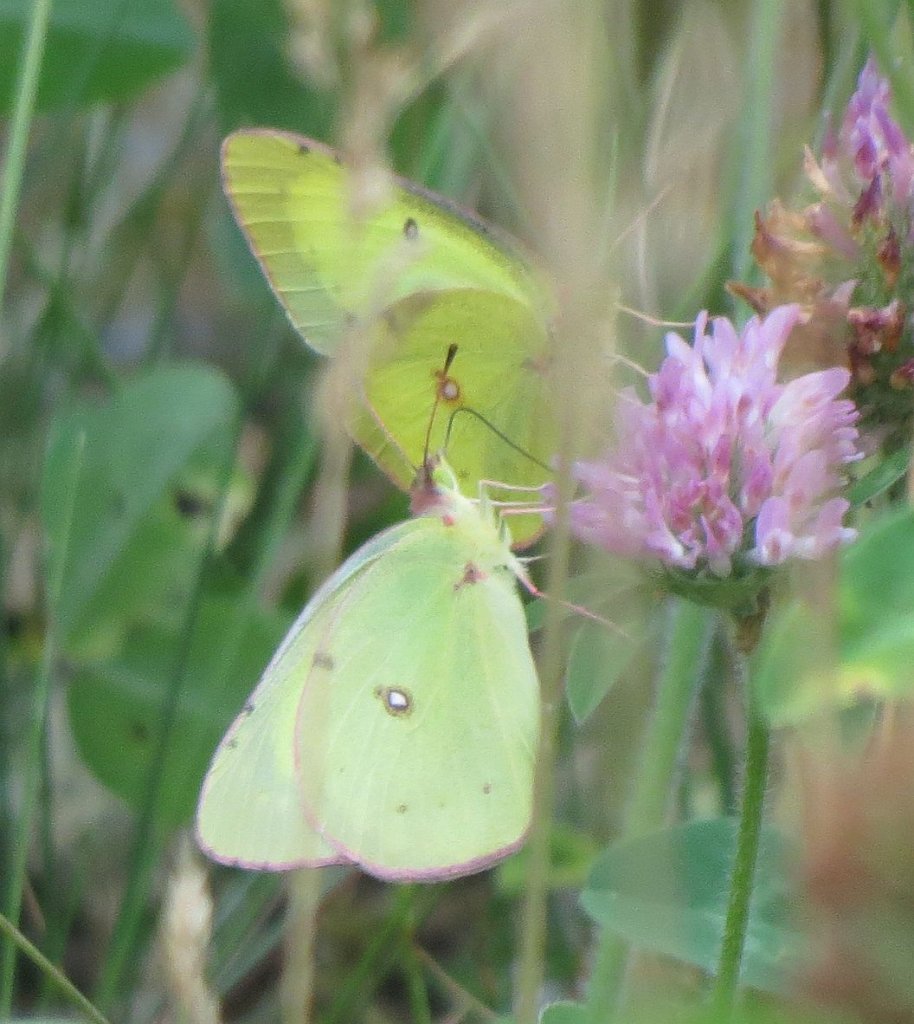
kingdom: Animalia
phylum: Arthropoda
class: Insecta
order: Lepidoptera
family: Pieridae
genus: Colias
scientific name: Colias interior
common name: Pink-edged Sulphur
